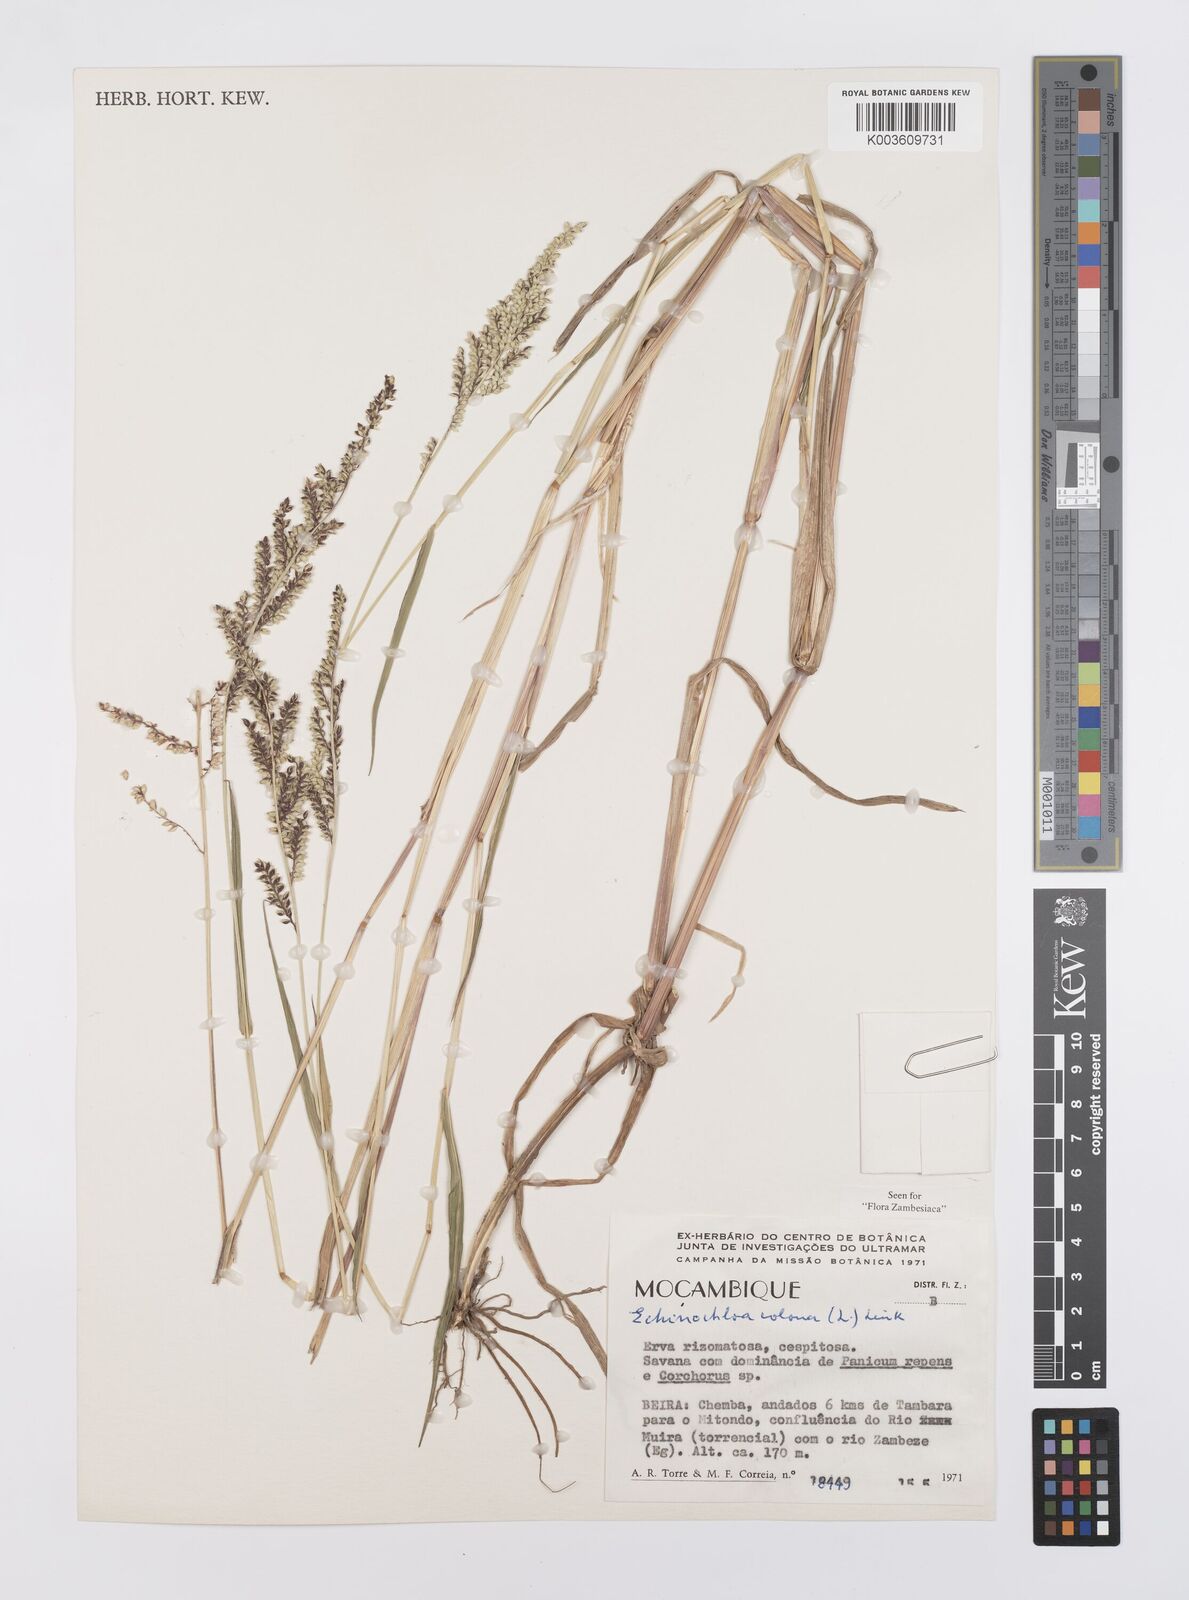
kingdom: Plantae
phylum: Tracheophyta
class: Liliopsida
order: Poales
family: Poaceae
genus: Echinochloa
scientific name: Echinochloa colonum
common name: Jungle rice
